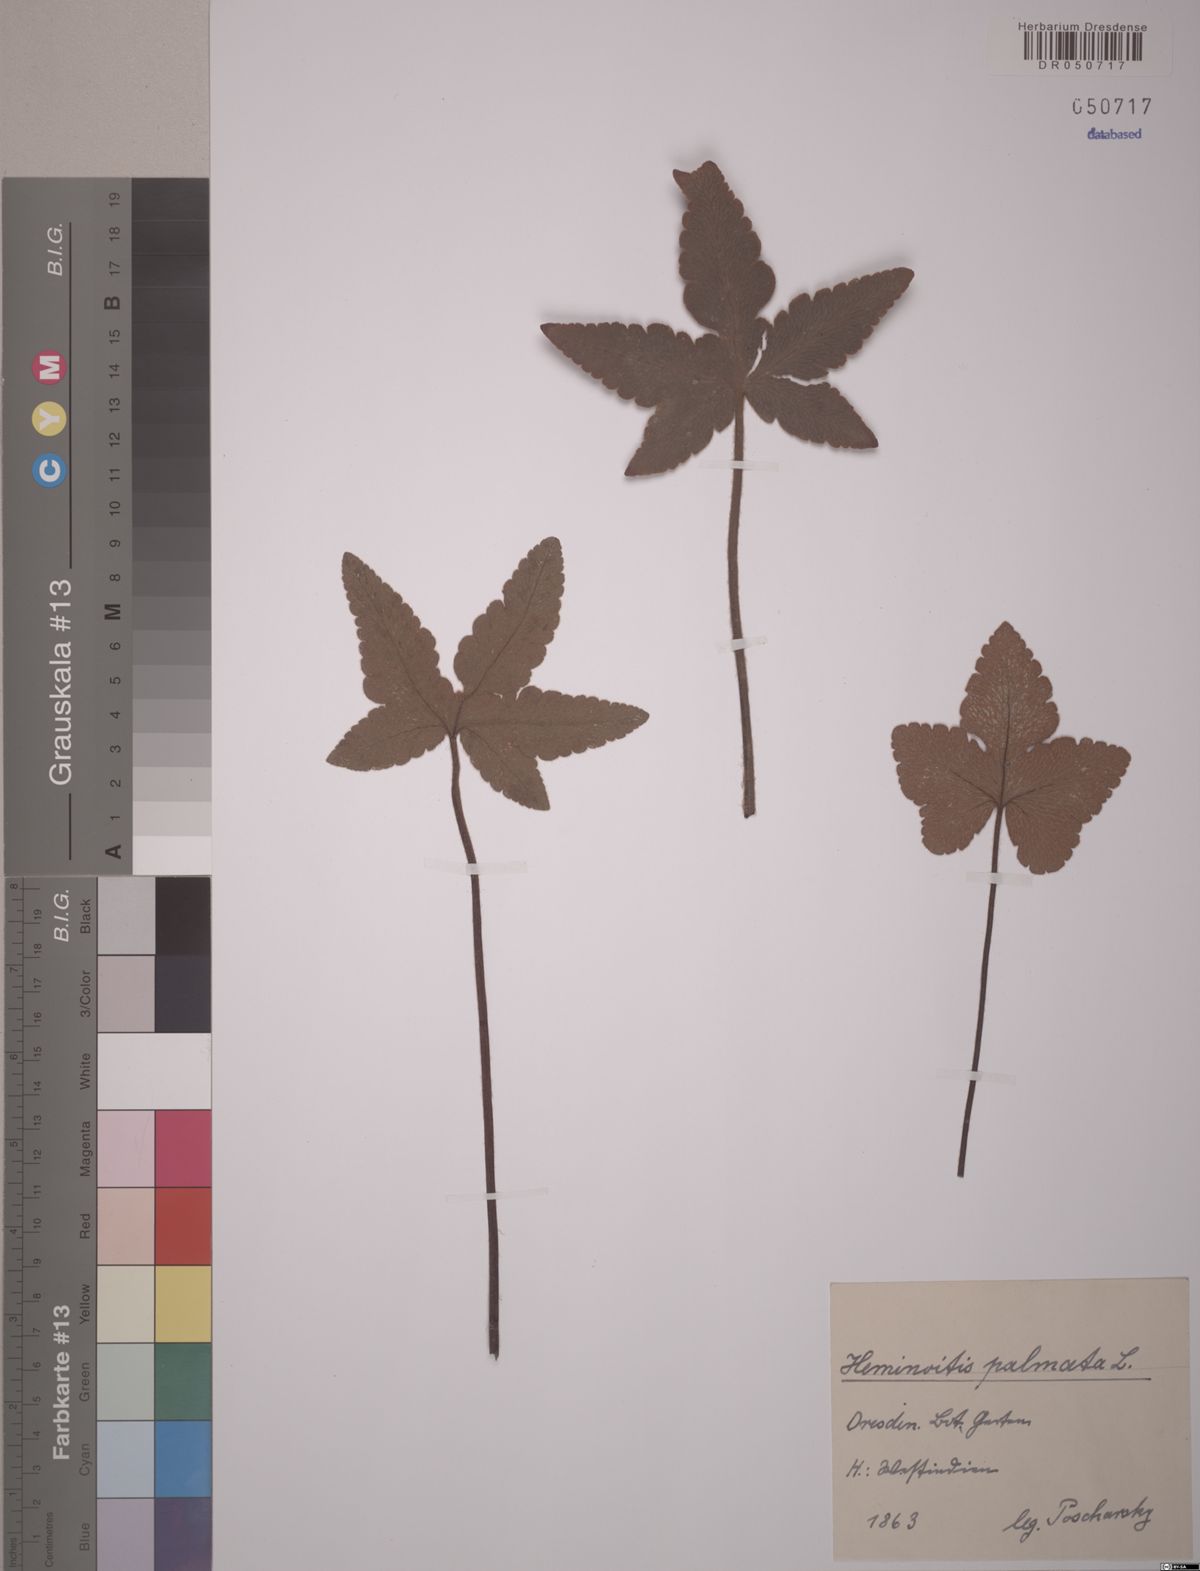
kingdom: Plantae
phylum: Tracheophyta
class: Polypodiopsida
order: Polypodiales
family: Pteridaceae
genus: Hemionitis
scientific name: Hemionitis palmata
